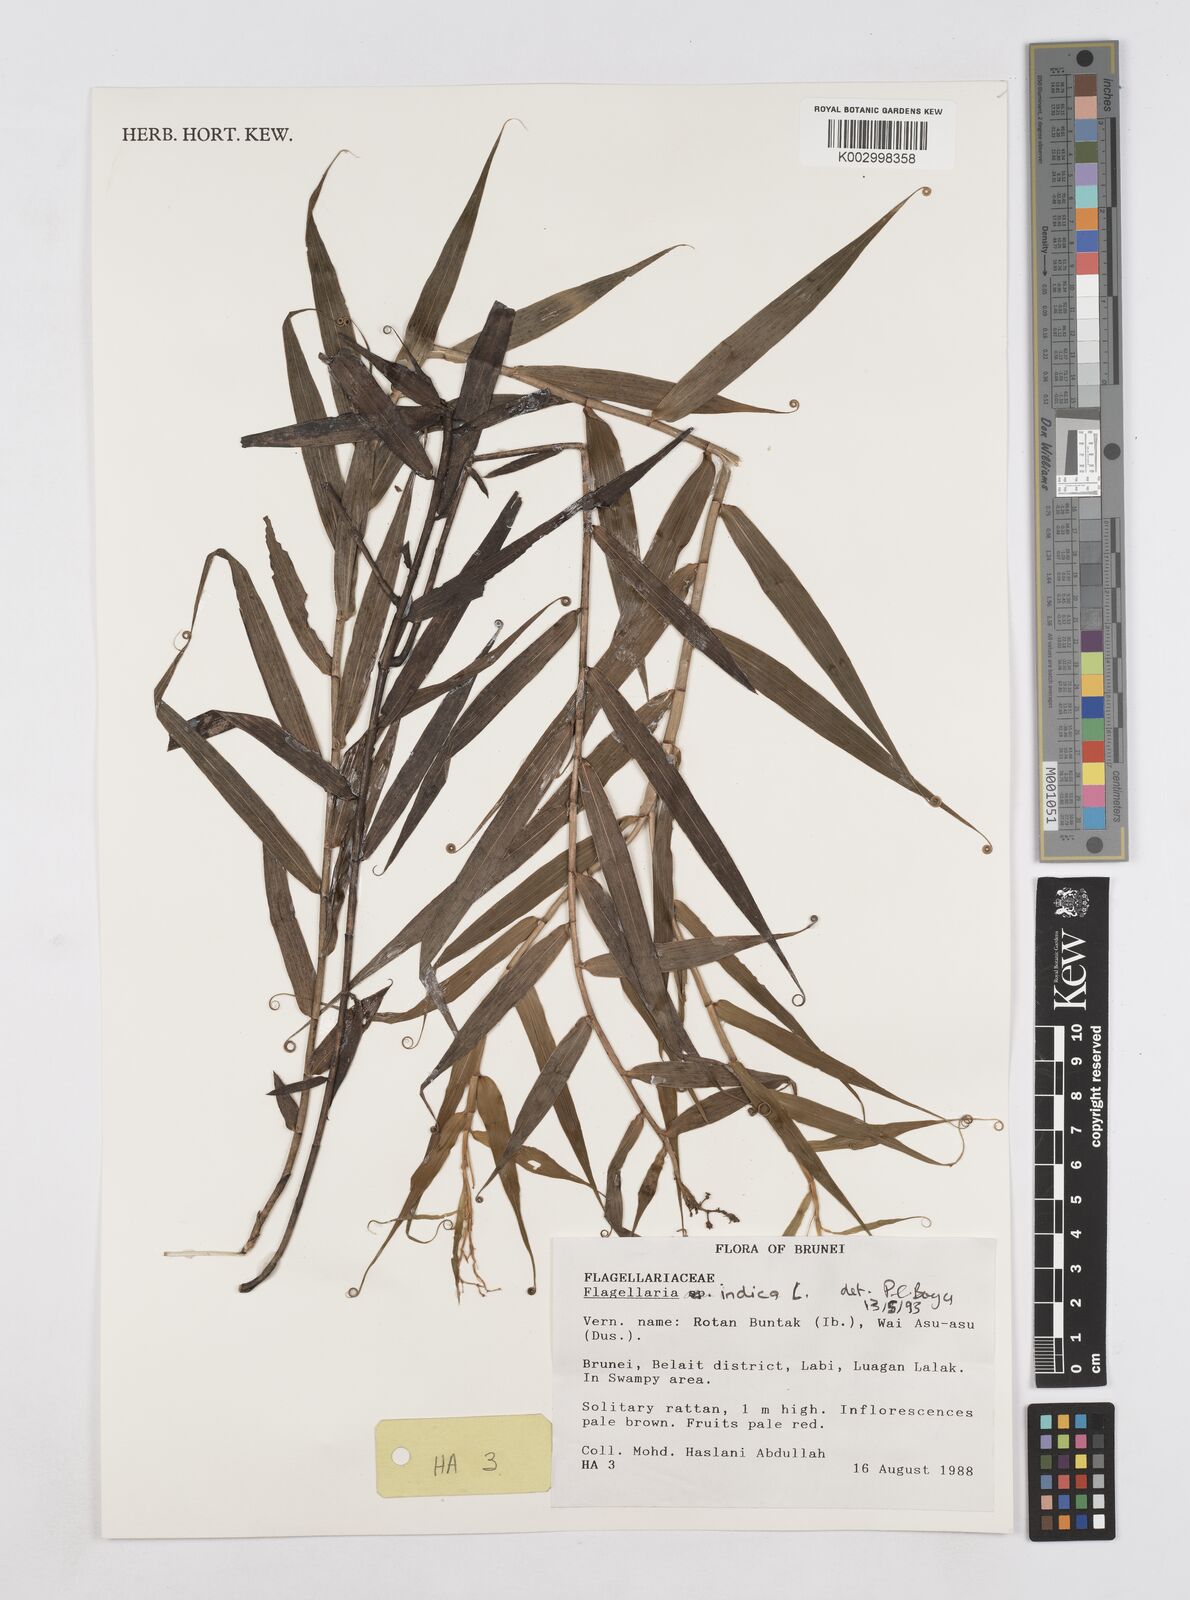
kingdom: Plantae
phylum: Tracheophyta
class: Liliopsida
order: Poales
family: Flagellariaceae
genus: Flagellaria
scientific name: Flagellaria indica
